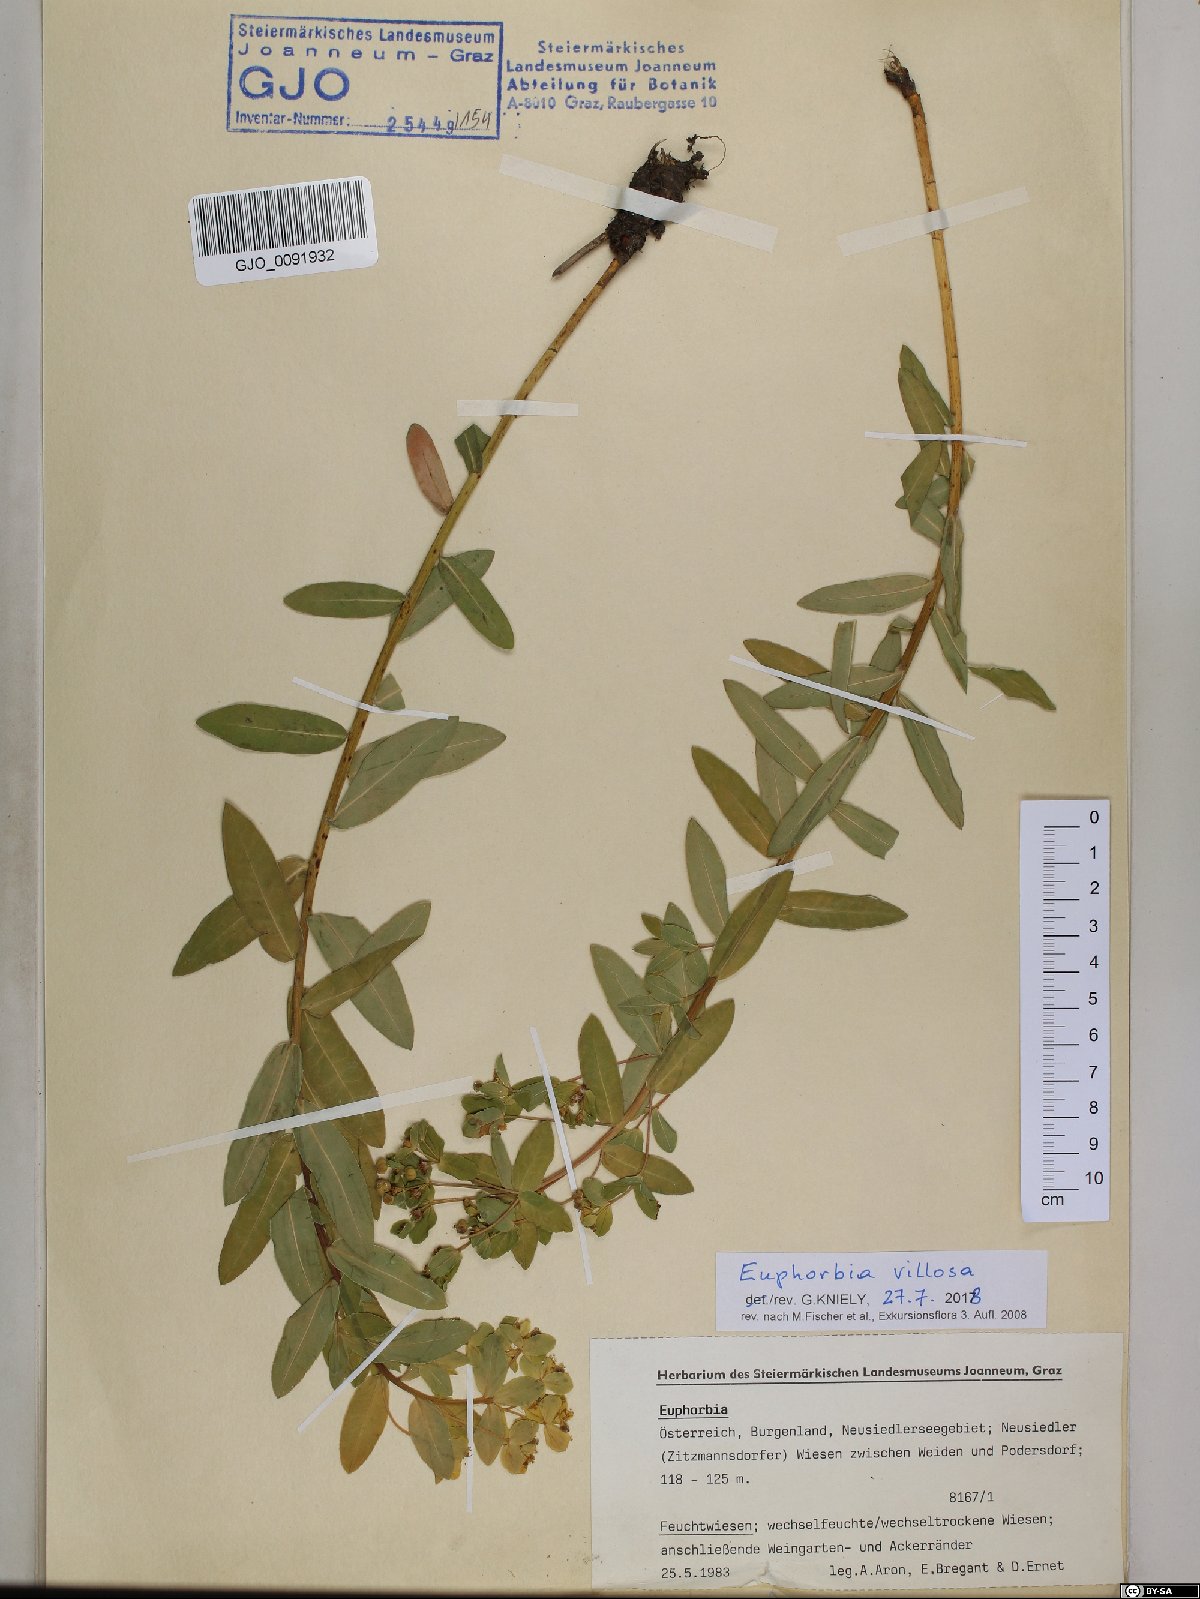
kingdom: Plantae
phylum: Tracheophyta
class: Magnoliopsida
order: Malpighiales
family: Euphorbiaceae
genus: Euphorbia
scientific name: Euphorbia illirica
